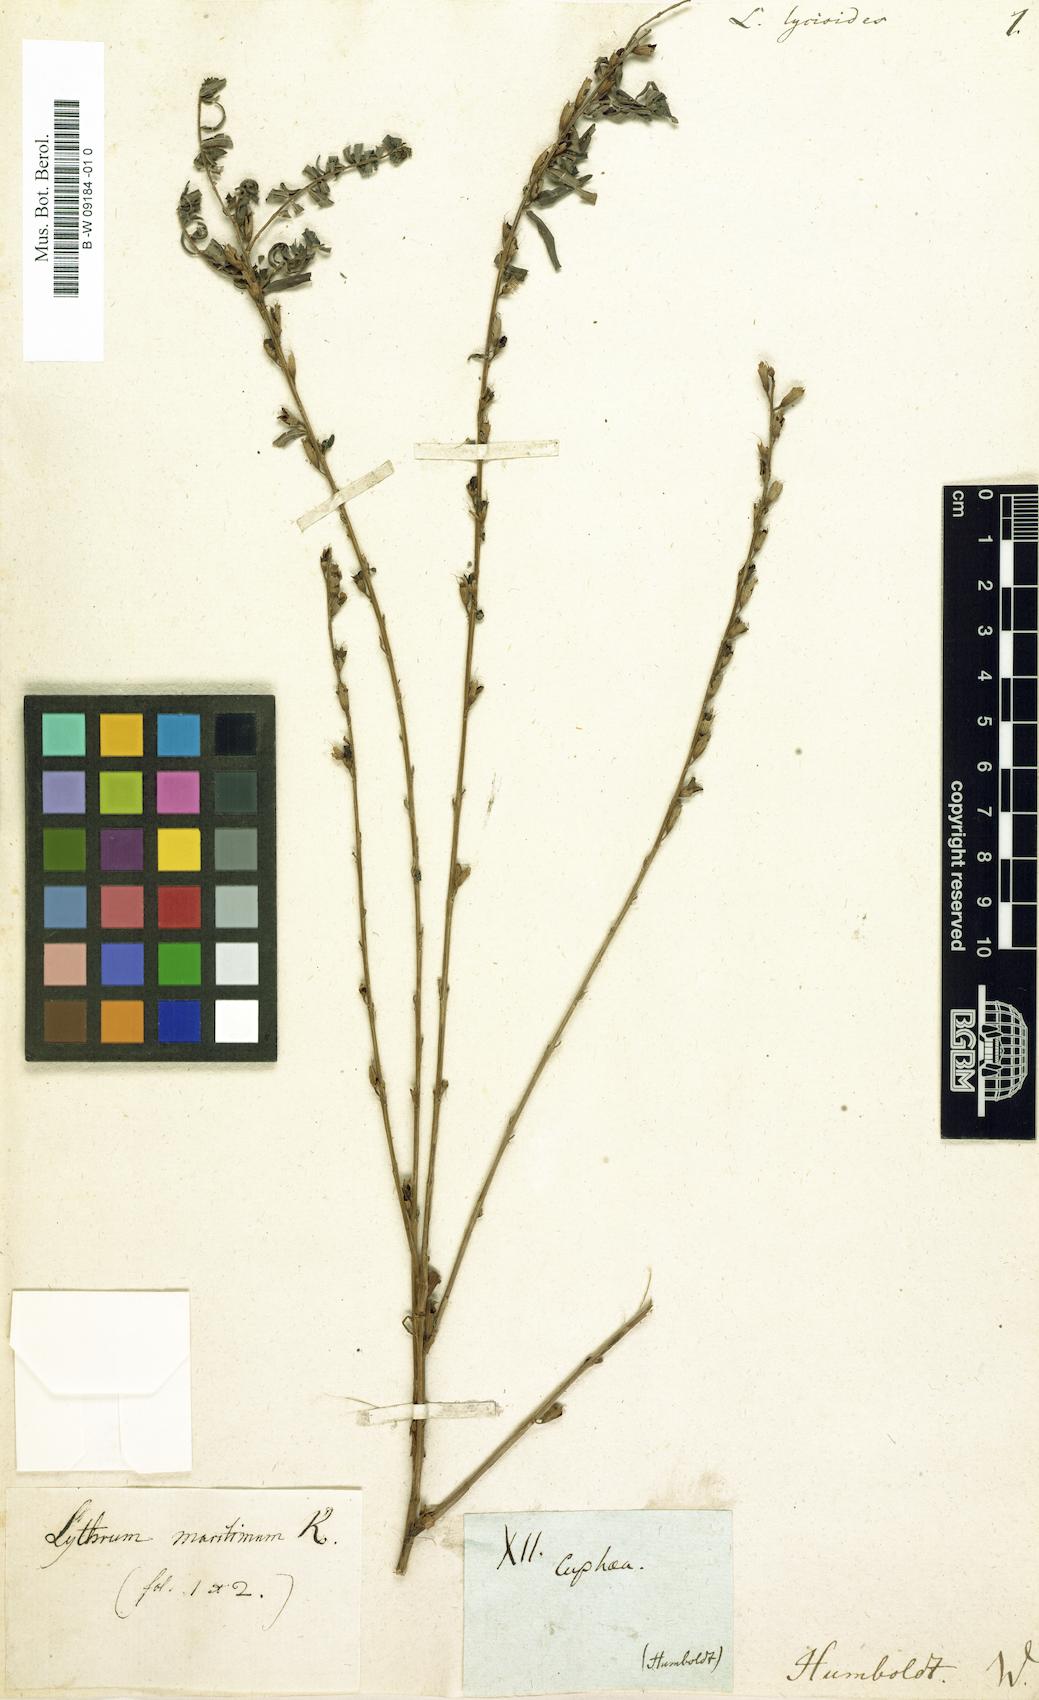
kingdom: Plantae
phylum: Tracheophyta
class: Magnoliopsida
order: Myrtales
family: Lythraceae
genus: Lythrum
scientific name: Lythrum maritimum
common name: Pukamole
